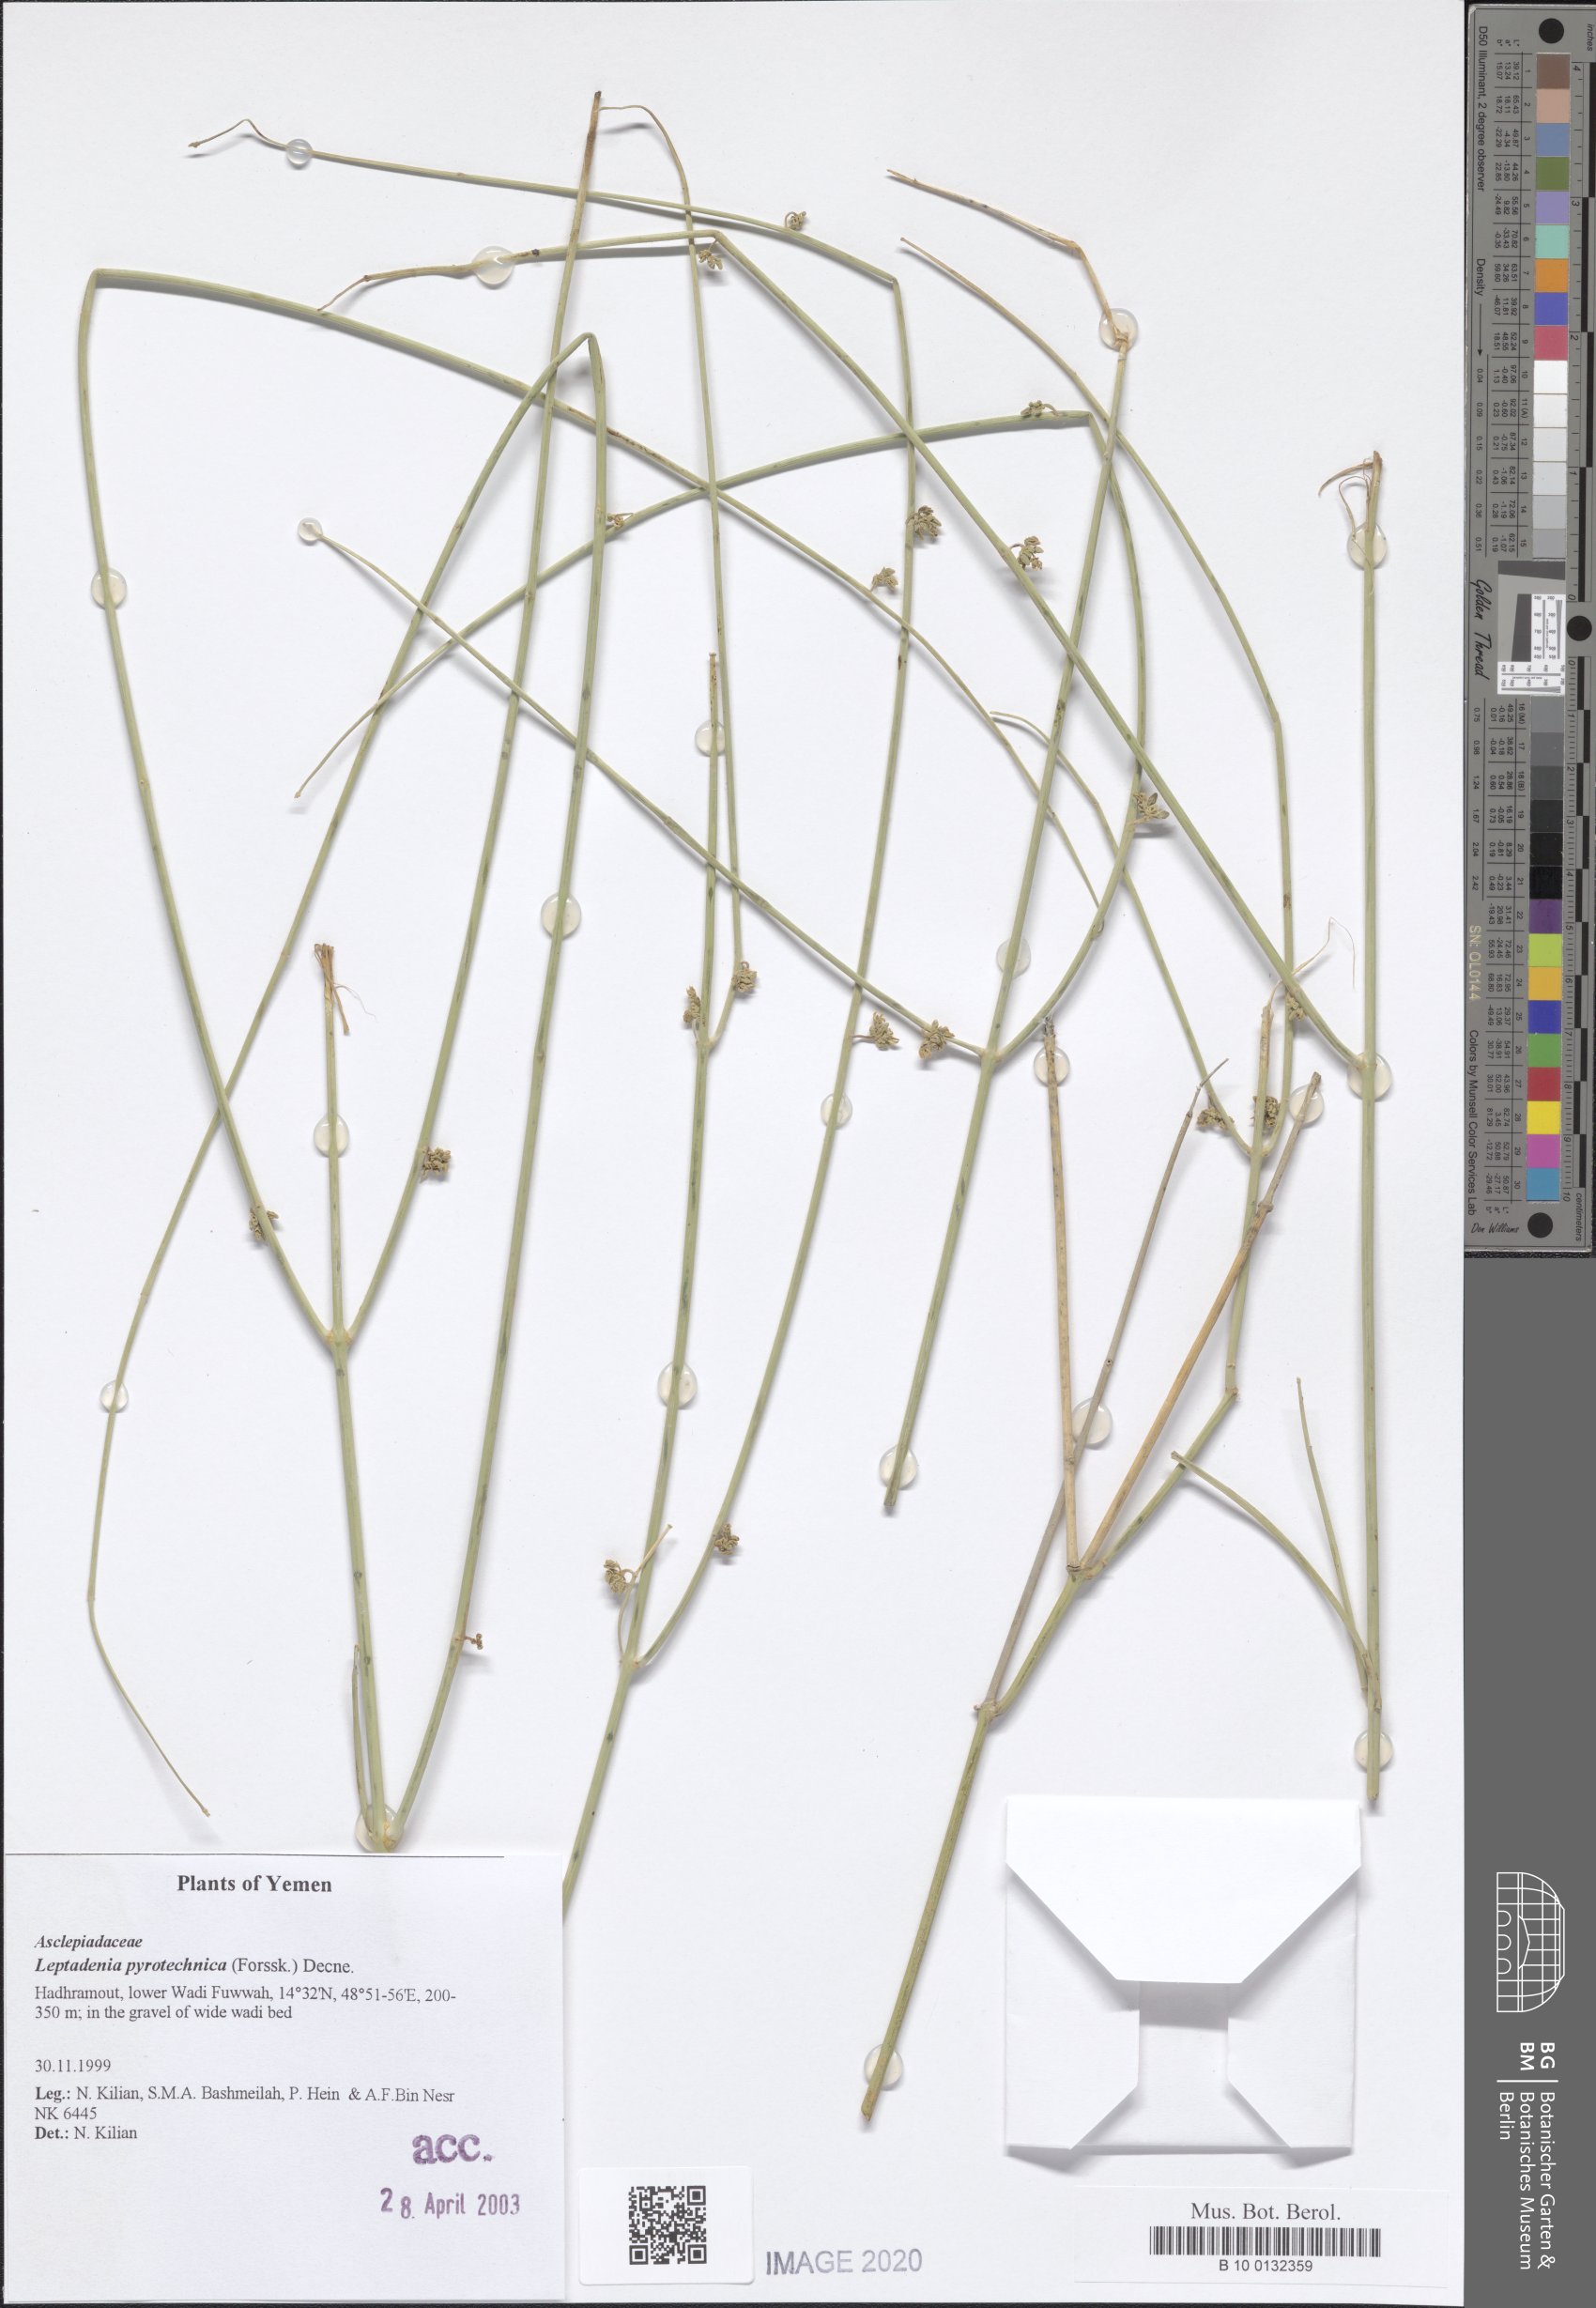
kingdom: Plantae
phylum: Tracheophyta
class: Magnoliopsida
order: Gentianales
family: Apocynaceae
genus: Leptadenia
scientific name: Leptadenia pyrotechnica
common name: Broom brush
